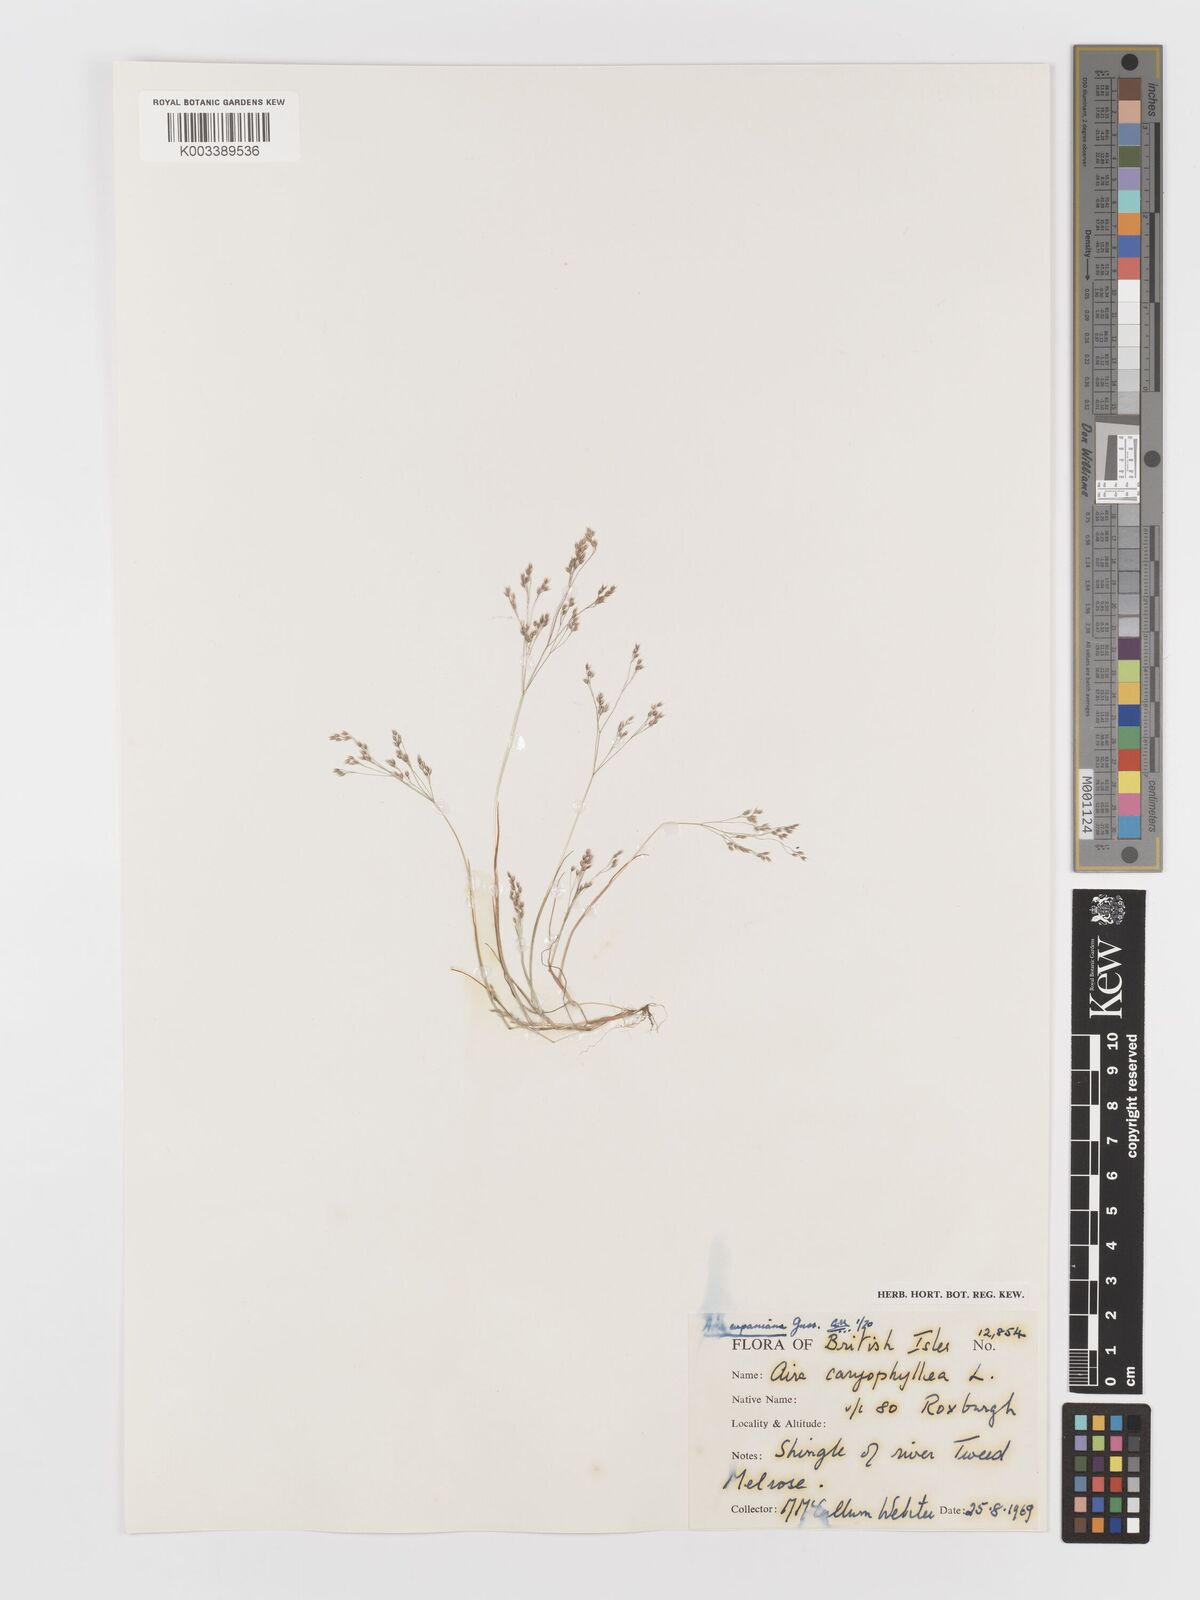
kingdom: Plantae
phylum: Tracheophyta
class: Liliopsida
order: Poales
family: Poaceae
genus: Aira
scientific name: Aira caryophyllea
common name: Silver hairgrass
